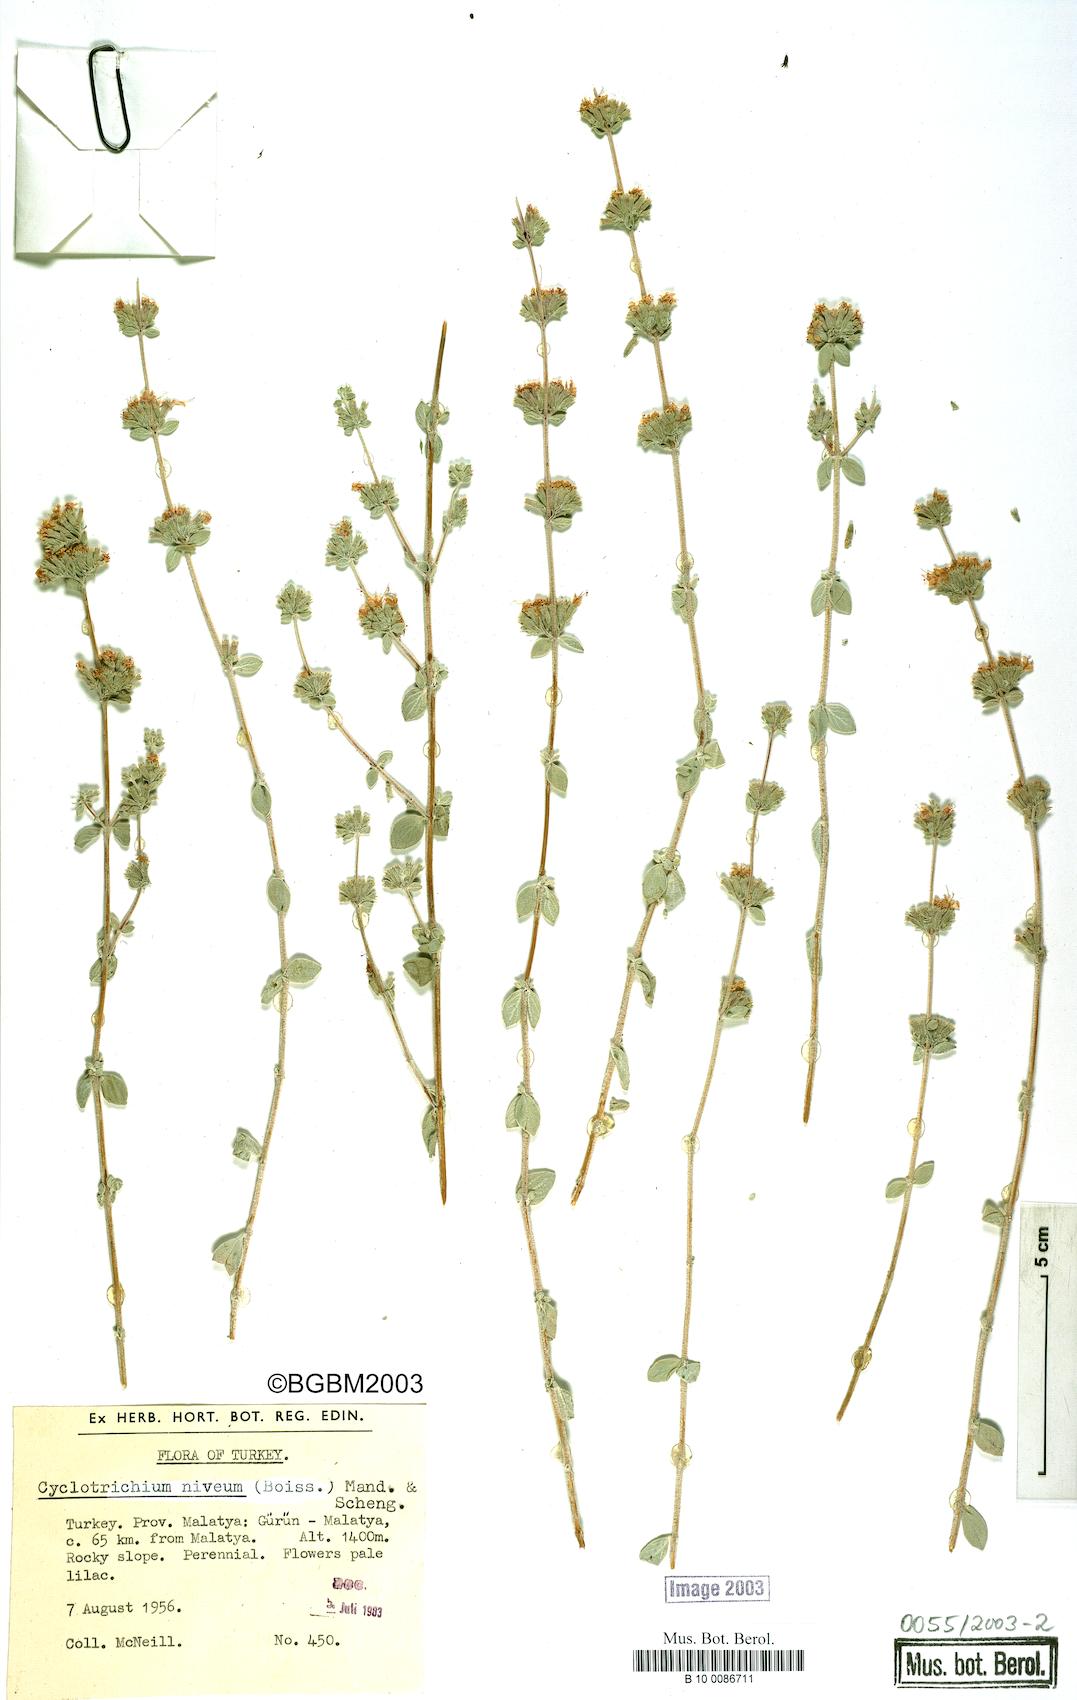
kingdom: Plantae
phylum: Tracheophyta
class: Magnoliopsida
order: Lamiales
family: Lamiaceae
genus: Cyclotrichium
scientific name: Cyclotrichium niveum
